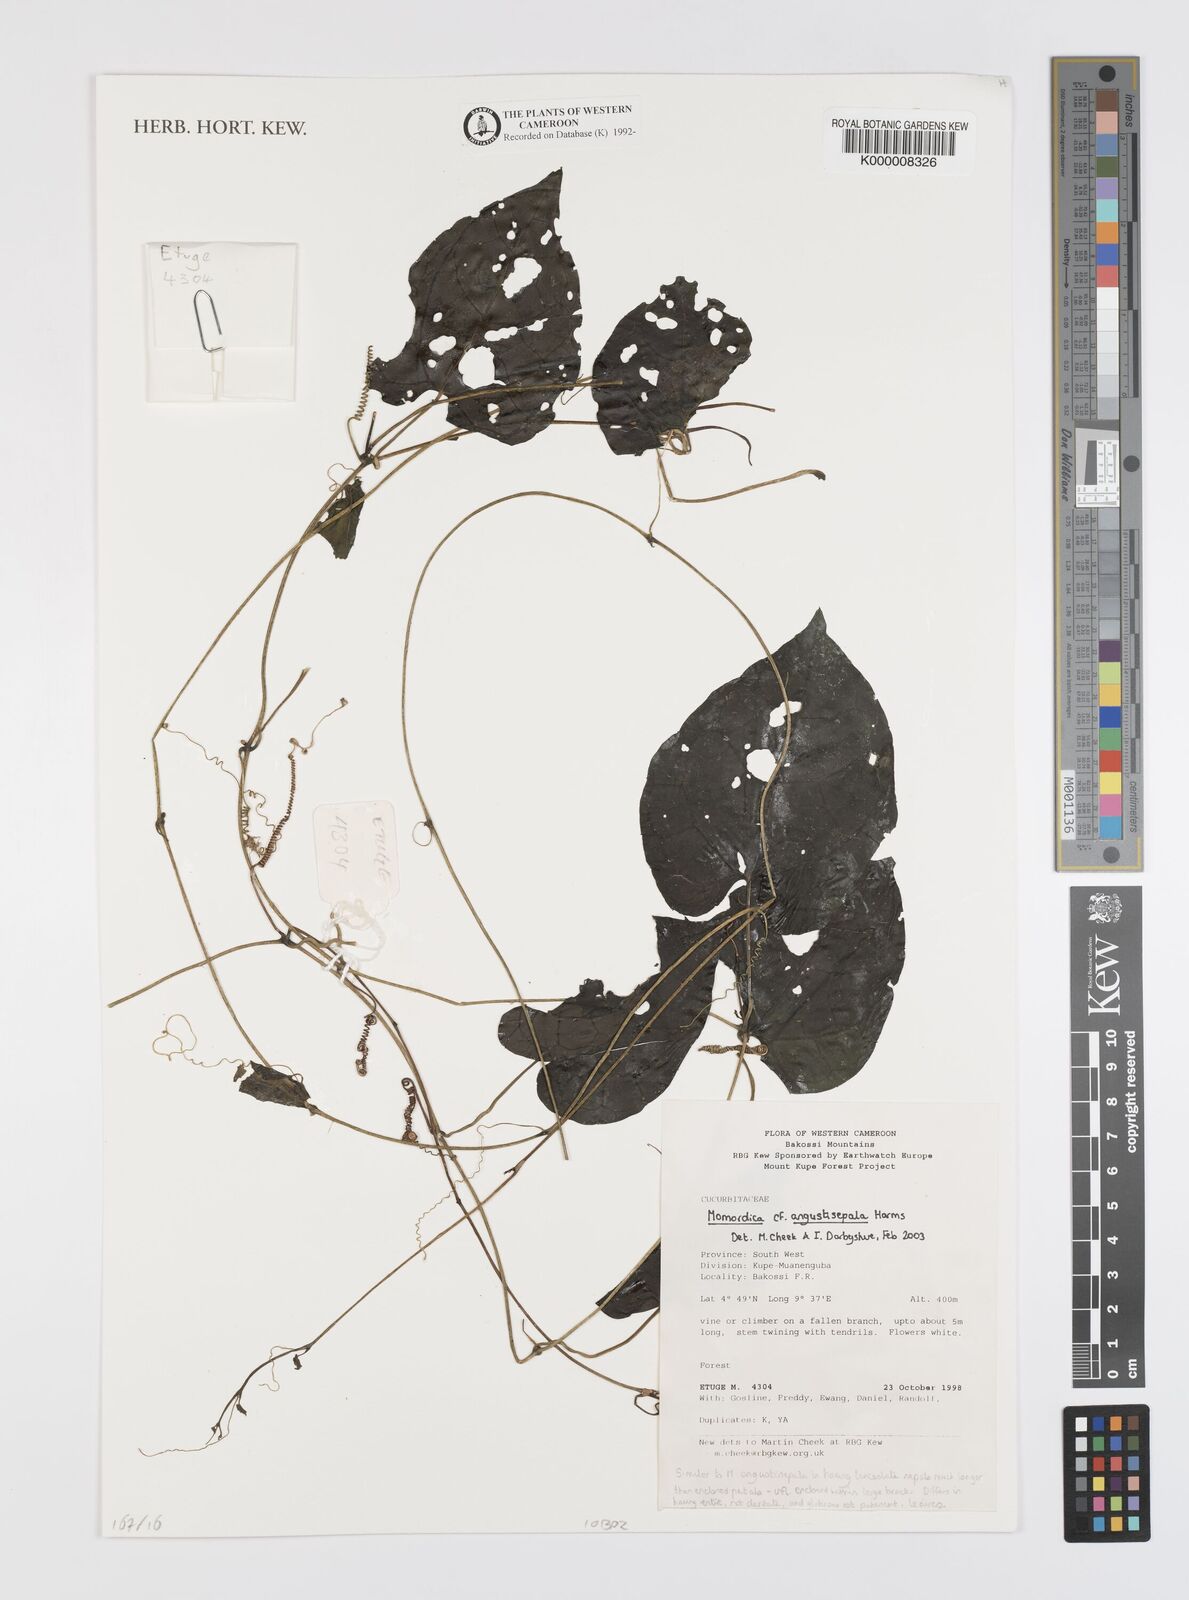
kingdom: Plantae
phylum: Tracheophyta
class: Magnoliopsida
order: Cucurbitales
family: Cucurbitaceae
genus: Momordica
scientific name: Momordica angustisepala
